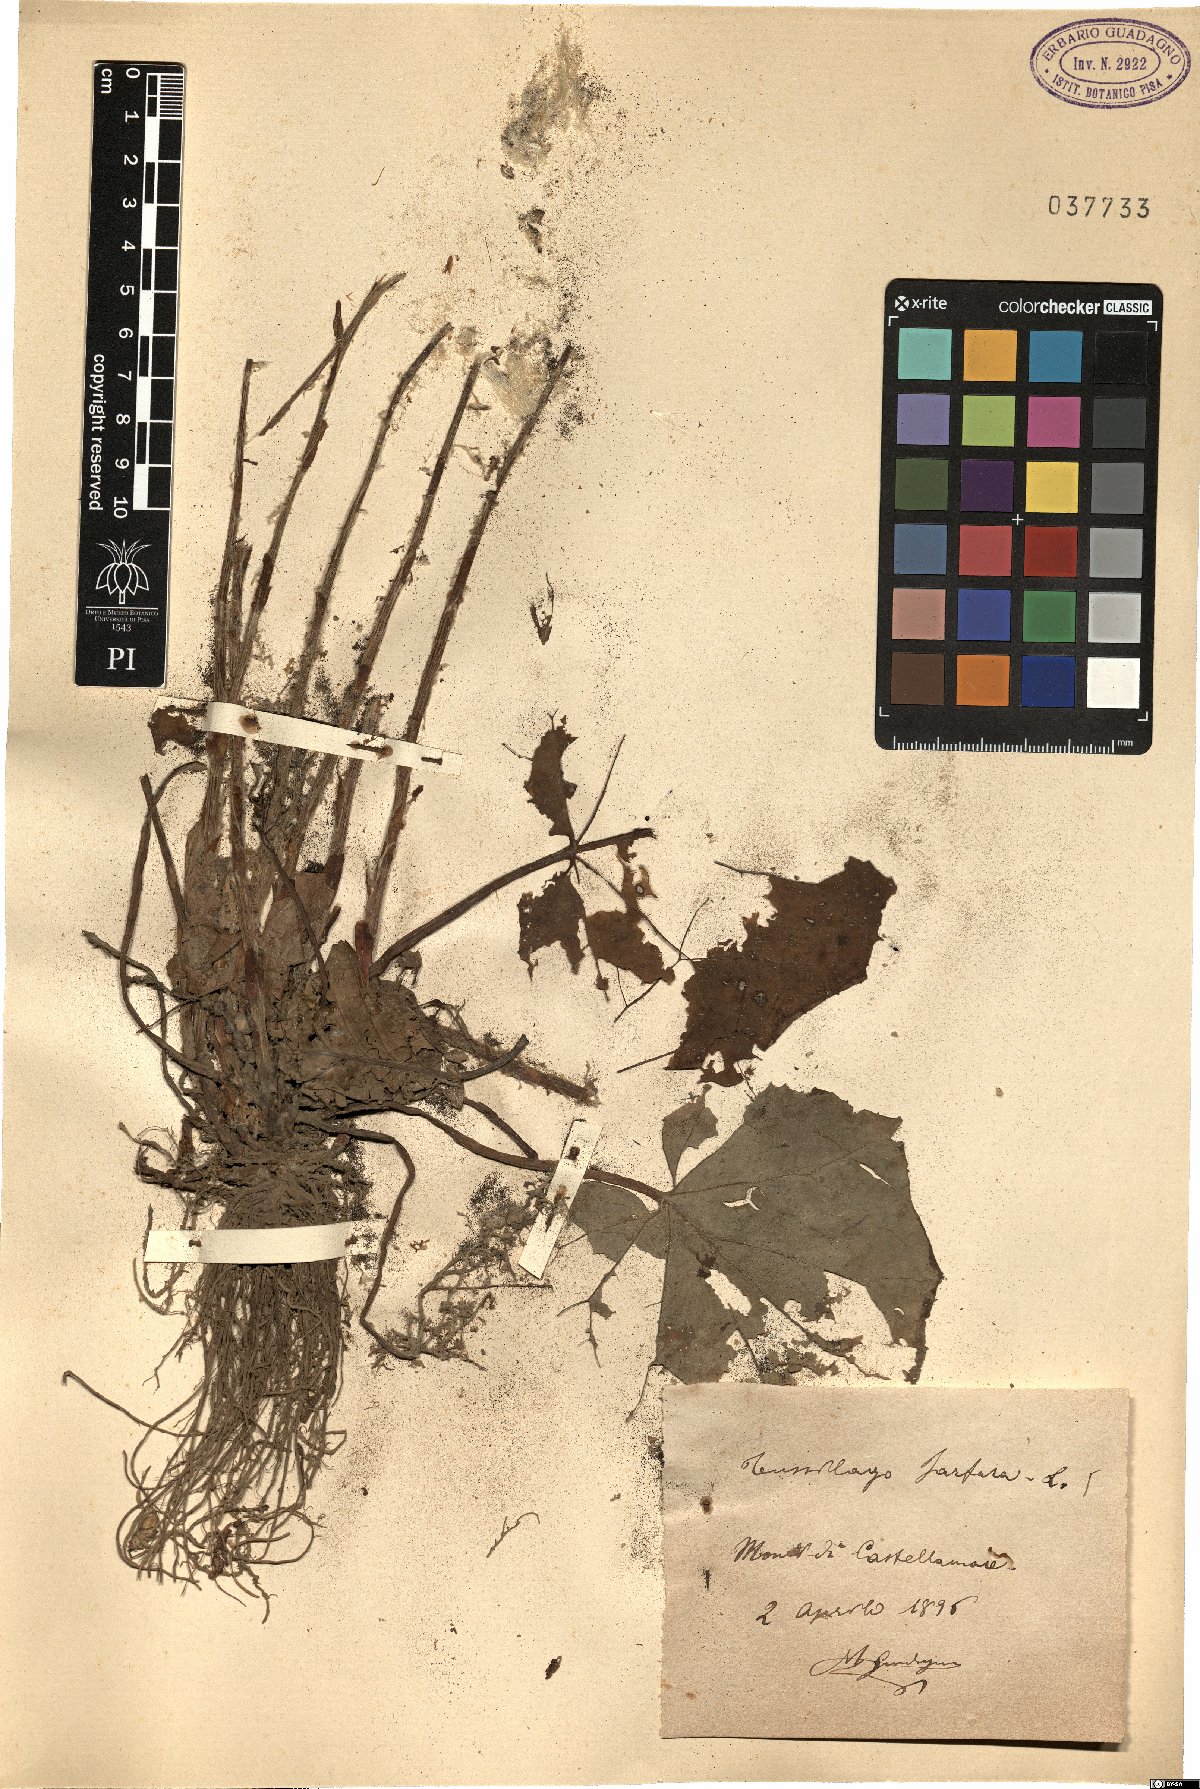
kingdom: Plantae
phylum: Tracheophyta
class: Magnoliopsida
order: Asterales
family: Asteraceae
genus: Tussilago
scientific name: Tussilago farfara
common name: Coltsfoot
